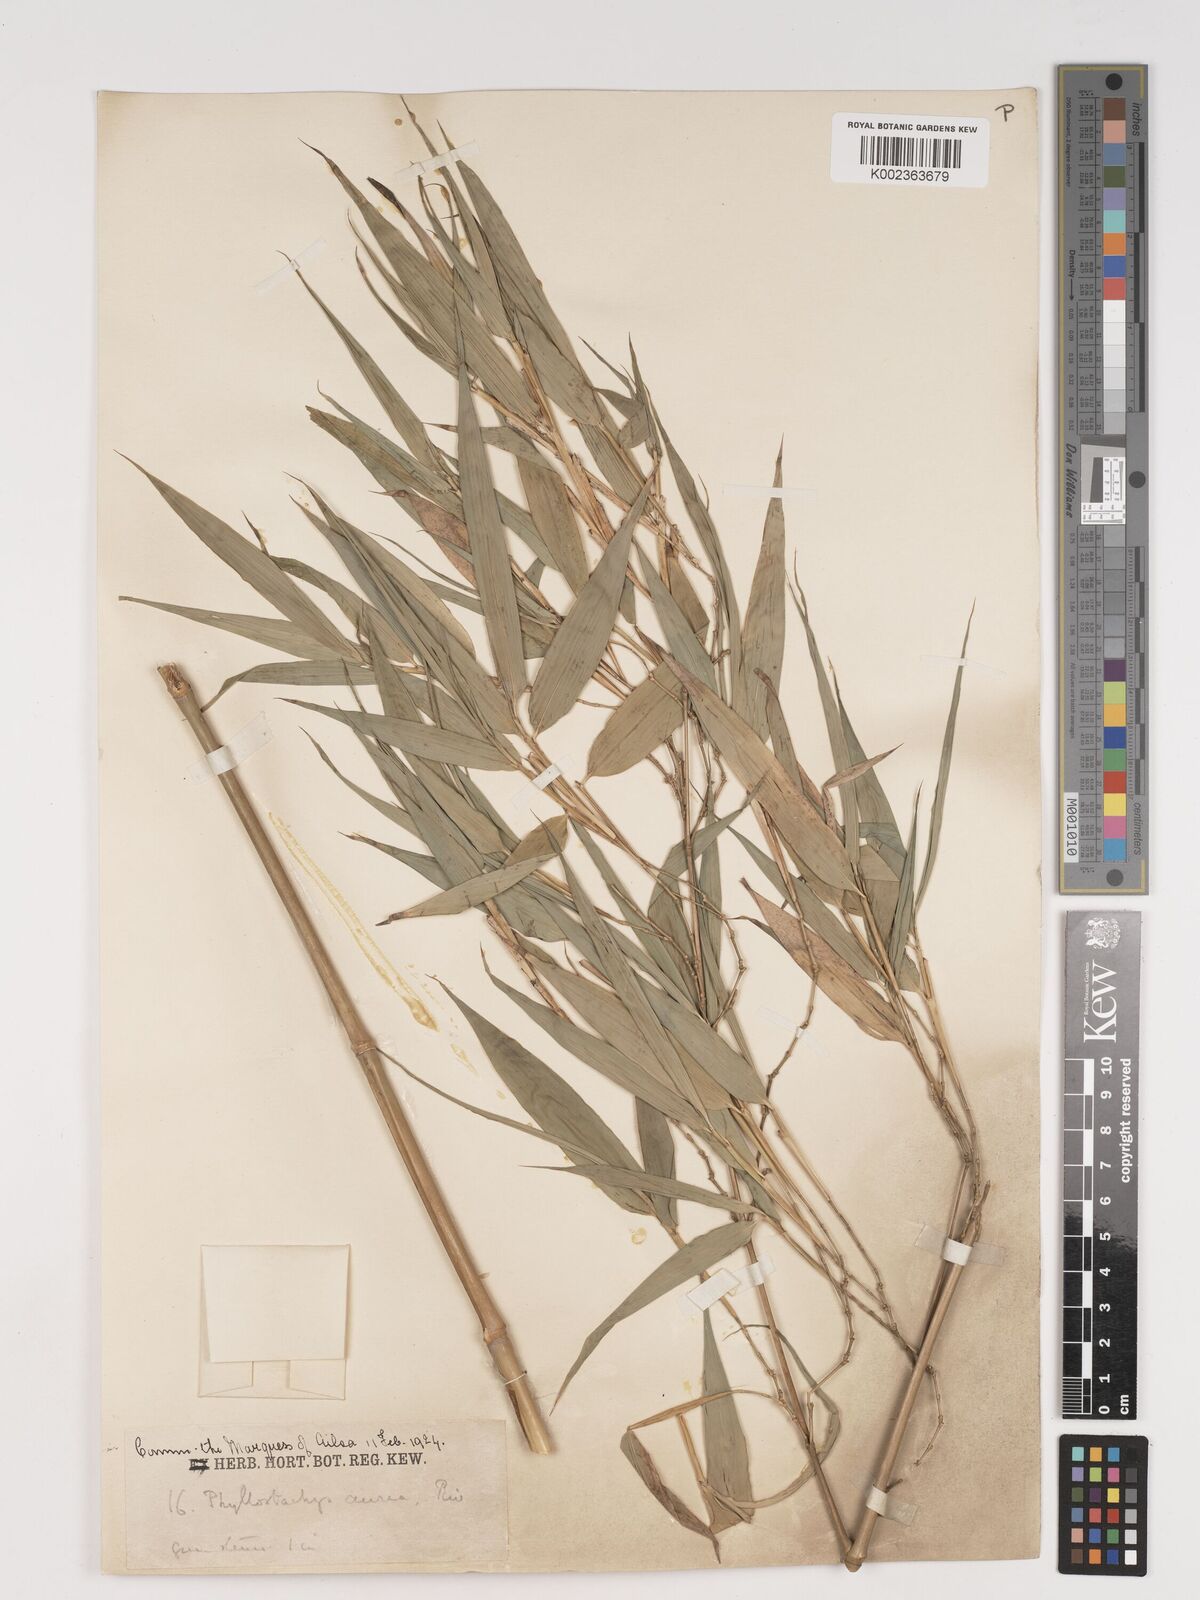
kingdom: Plantae
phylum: Tracheophyta
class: Liliopsida
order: Poales
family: Poaceae
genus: Phyllostachys
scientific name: Phyllostachys aurea
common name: Golden bamboo
